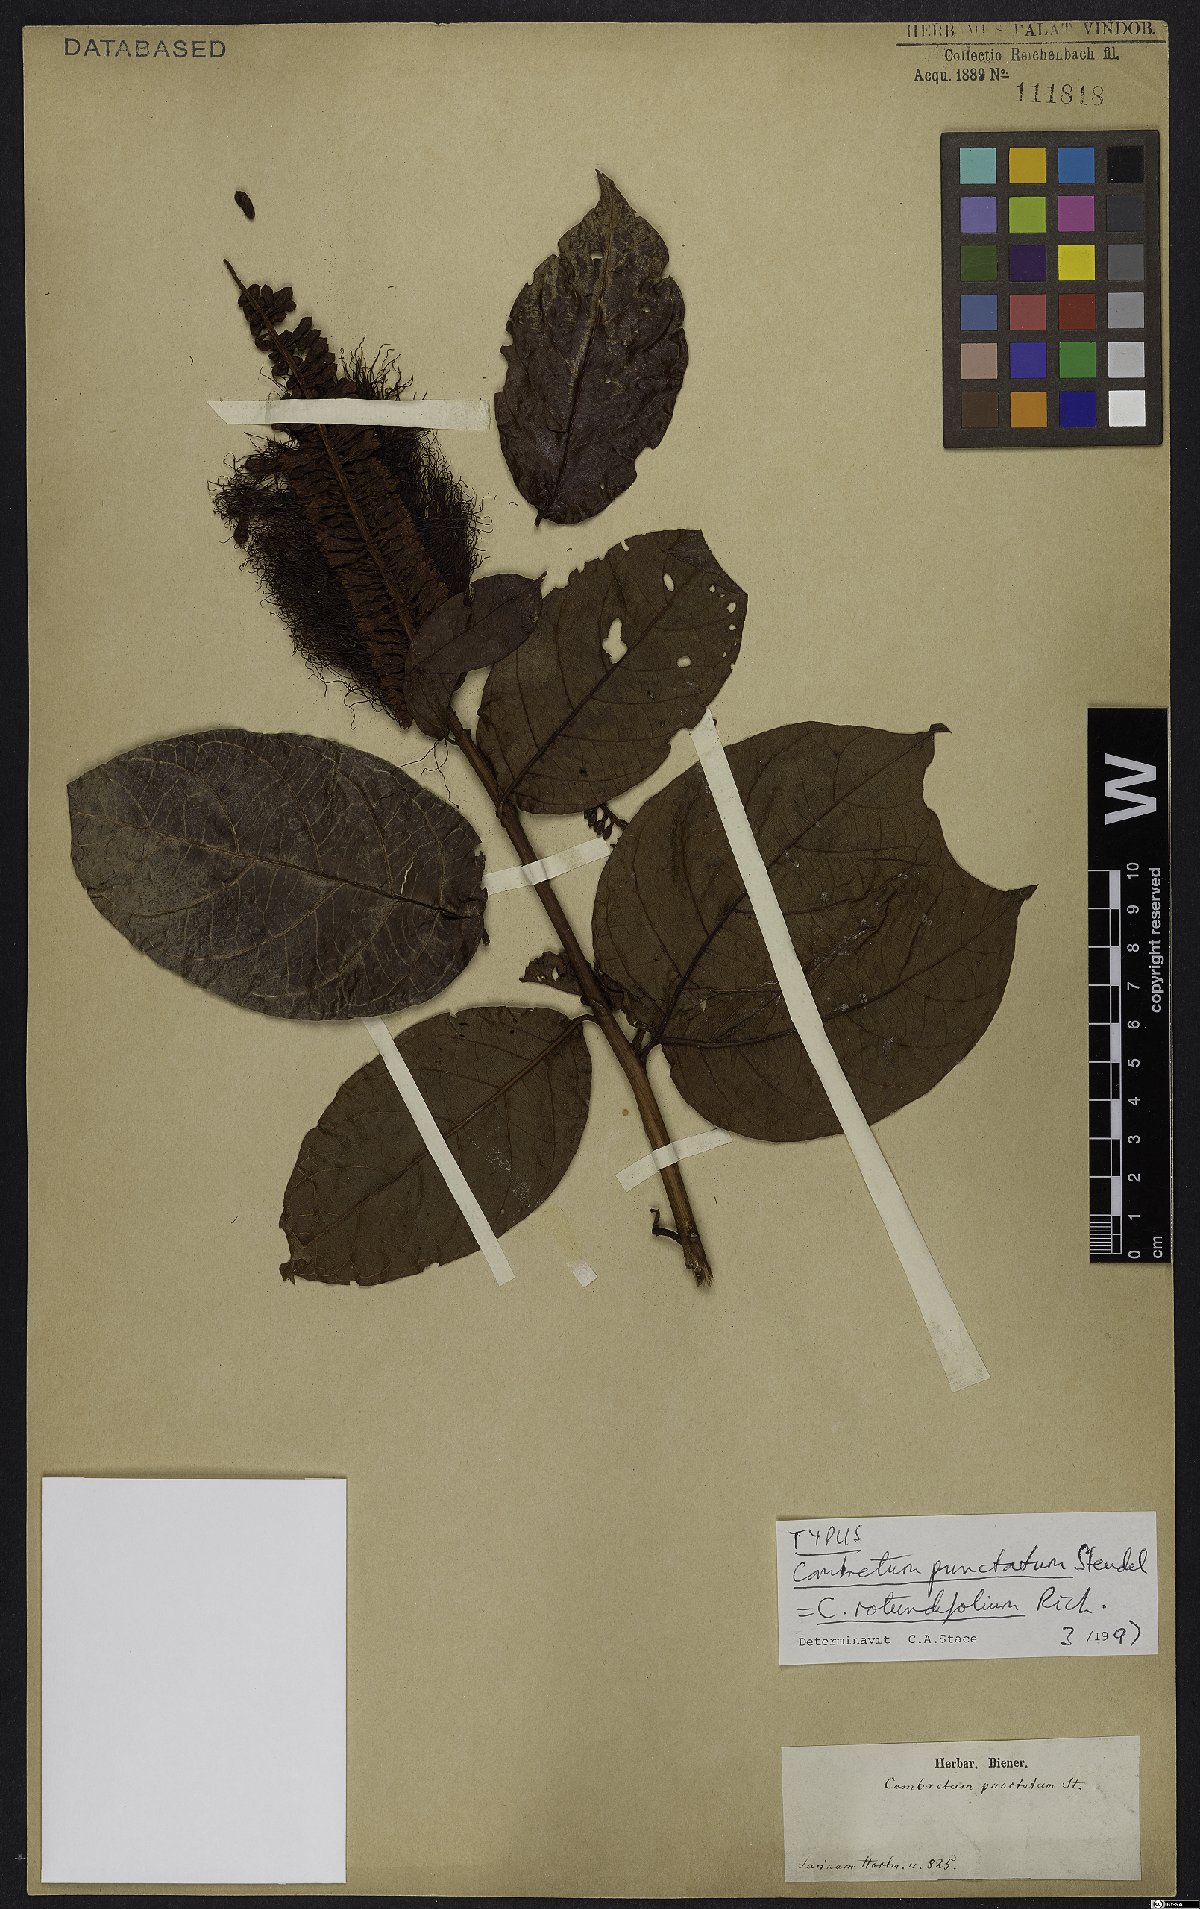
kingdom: Plantae
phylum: Tracheophyta
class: Magnoliopsida
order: Myrtales
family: Combretaceae
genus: Combretum
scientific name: Combretum rotundifolium
